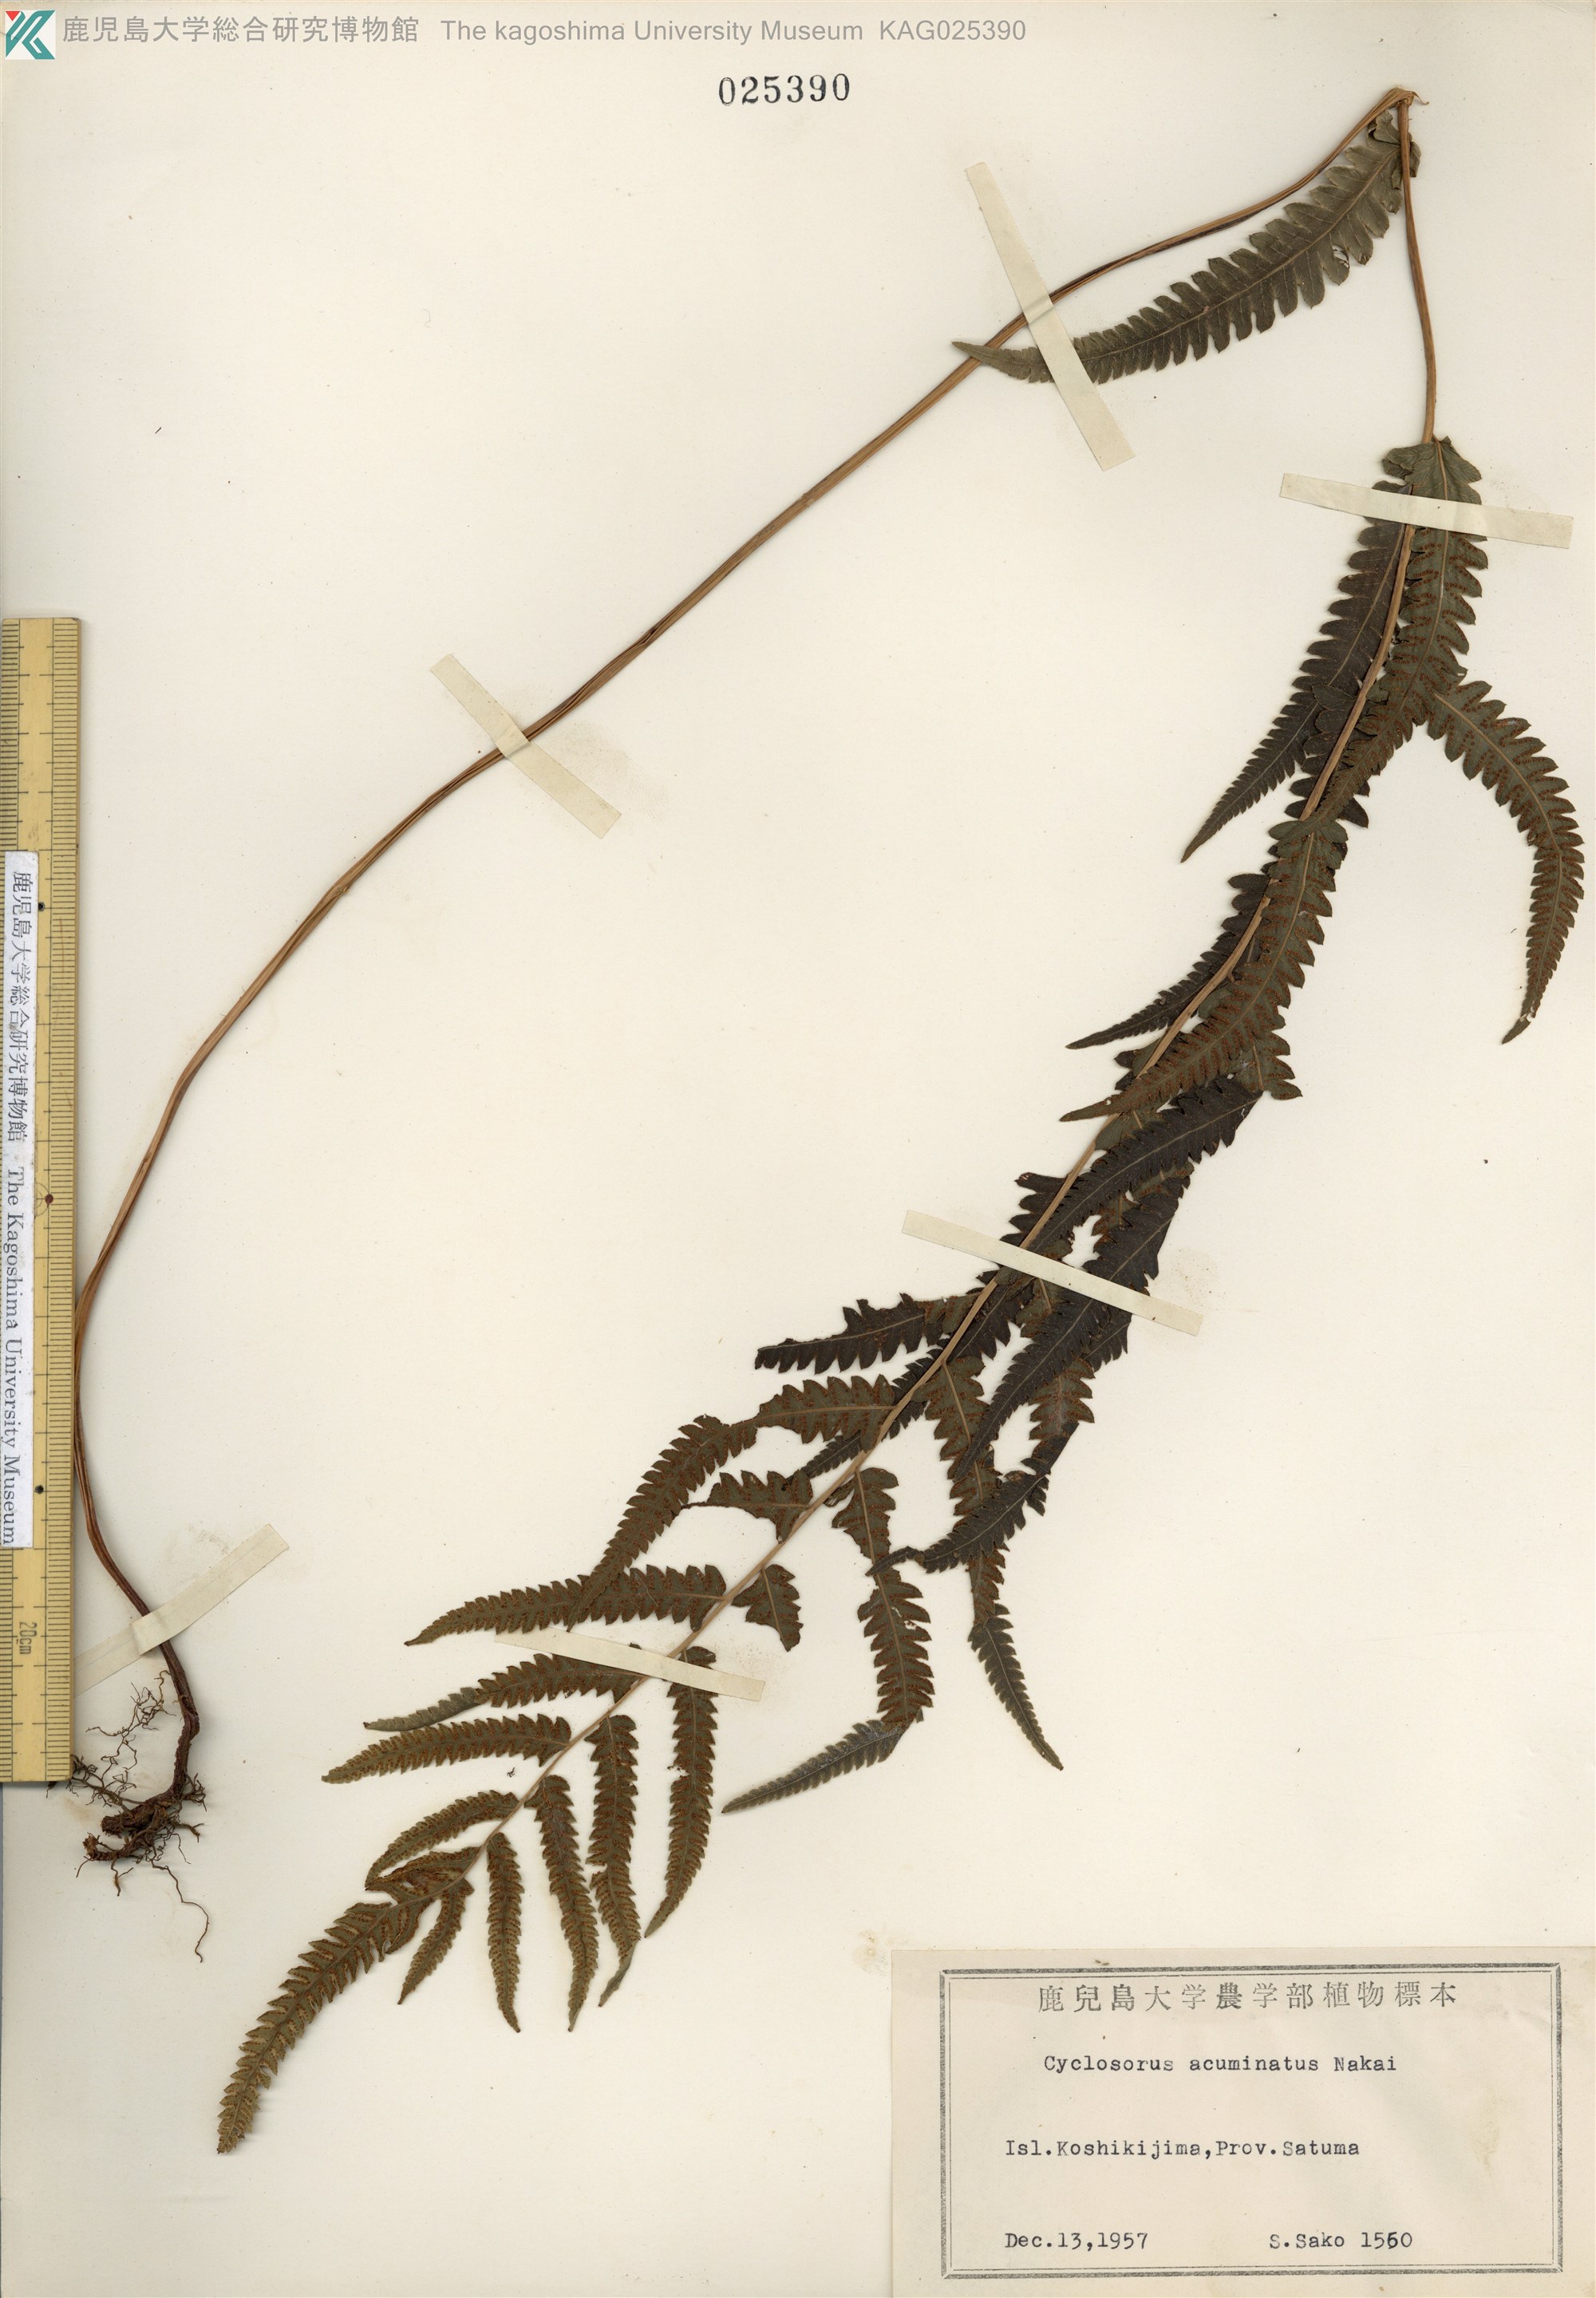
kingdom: Plantae
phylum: Tracheophyta
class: Polypodiopsida
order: Polypodiales
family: Thelypteridaceae
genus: Christella
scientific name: Christella acuminata
